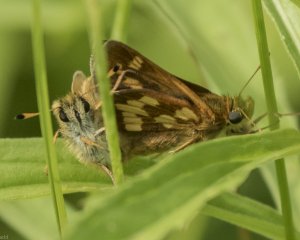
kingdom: Animalia
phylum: Arthropoda
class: Insecta
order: Lepidoptera
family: Hesperiidae
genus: Polites
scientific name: Polites coras
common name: Peck's Skipper
